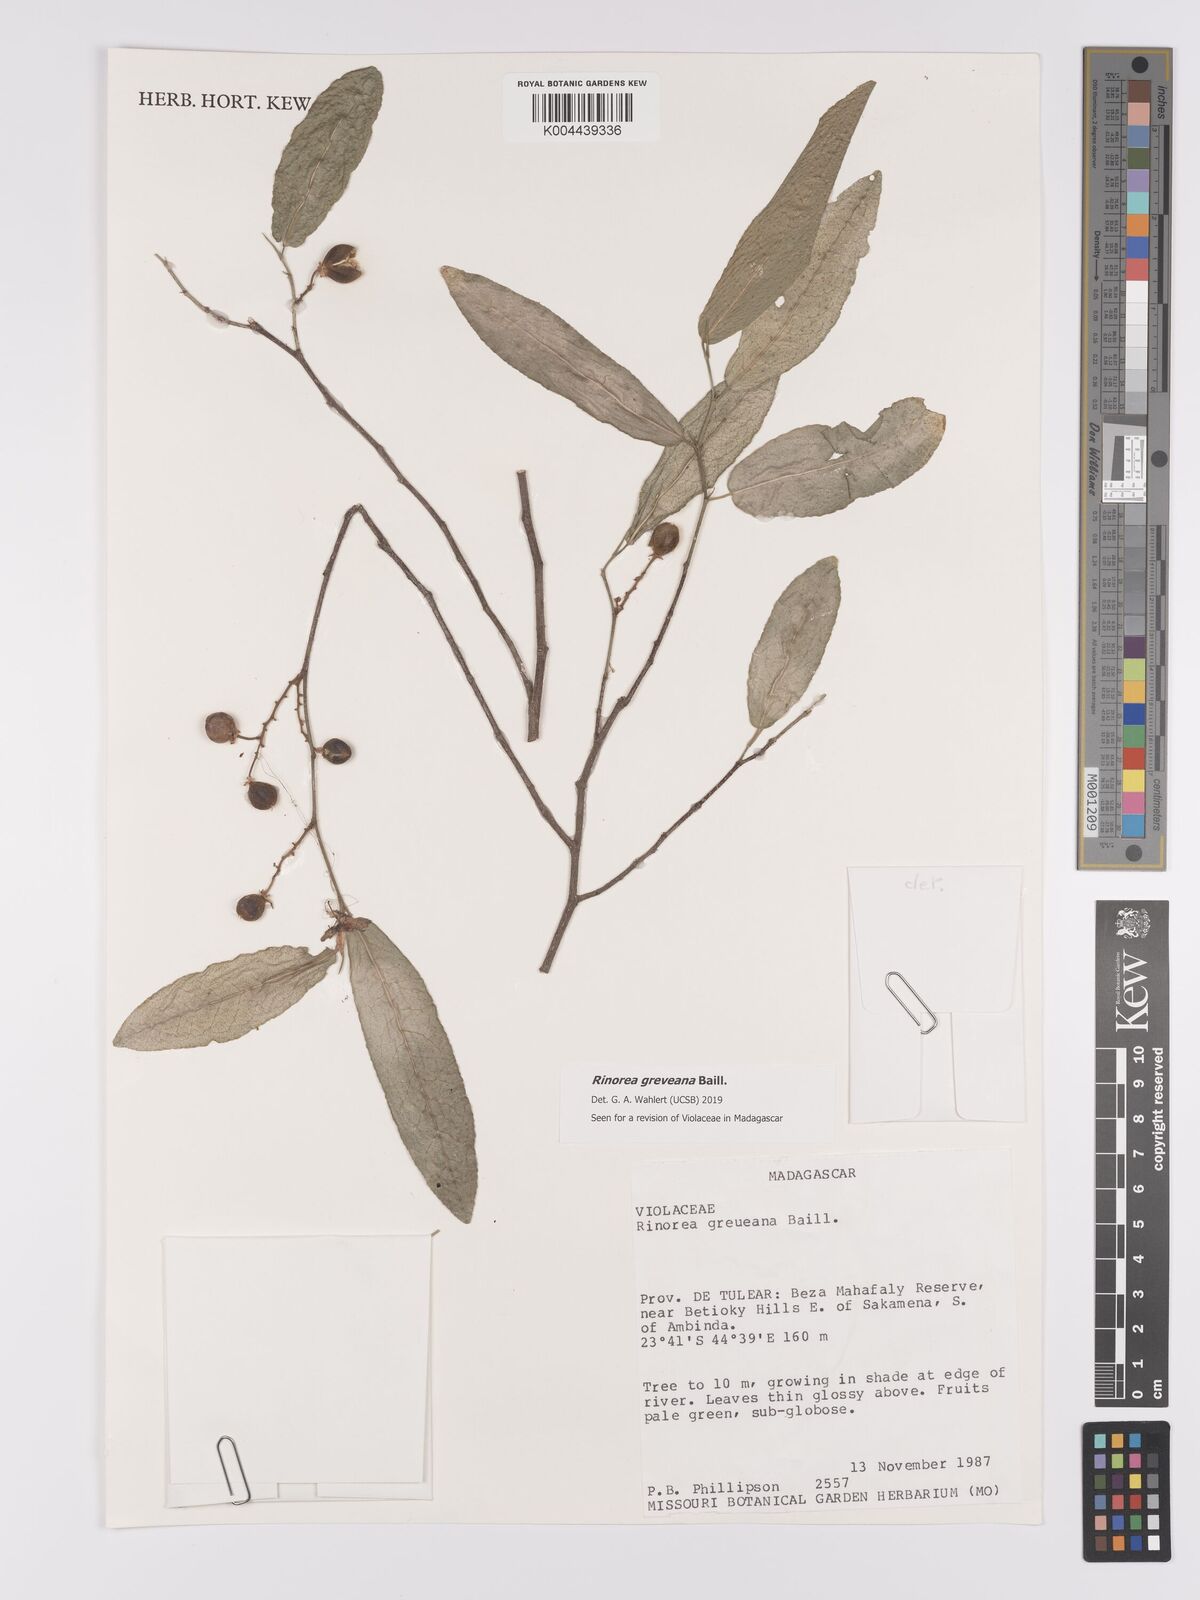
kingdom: Plantae
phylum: Tracheophyta
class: Magnoliopsida
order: Malpighiales
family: Violaceae
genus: Rinorea
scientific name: Rinorea greveana
